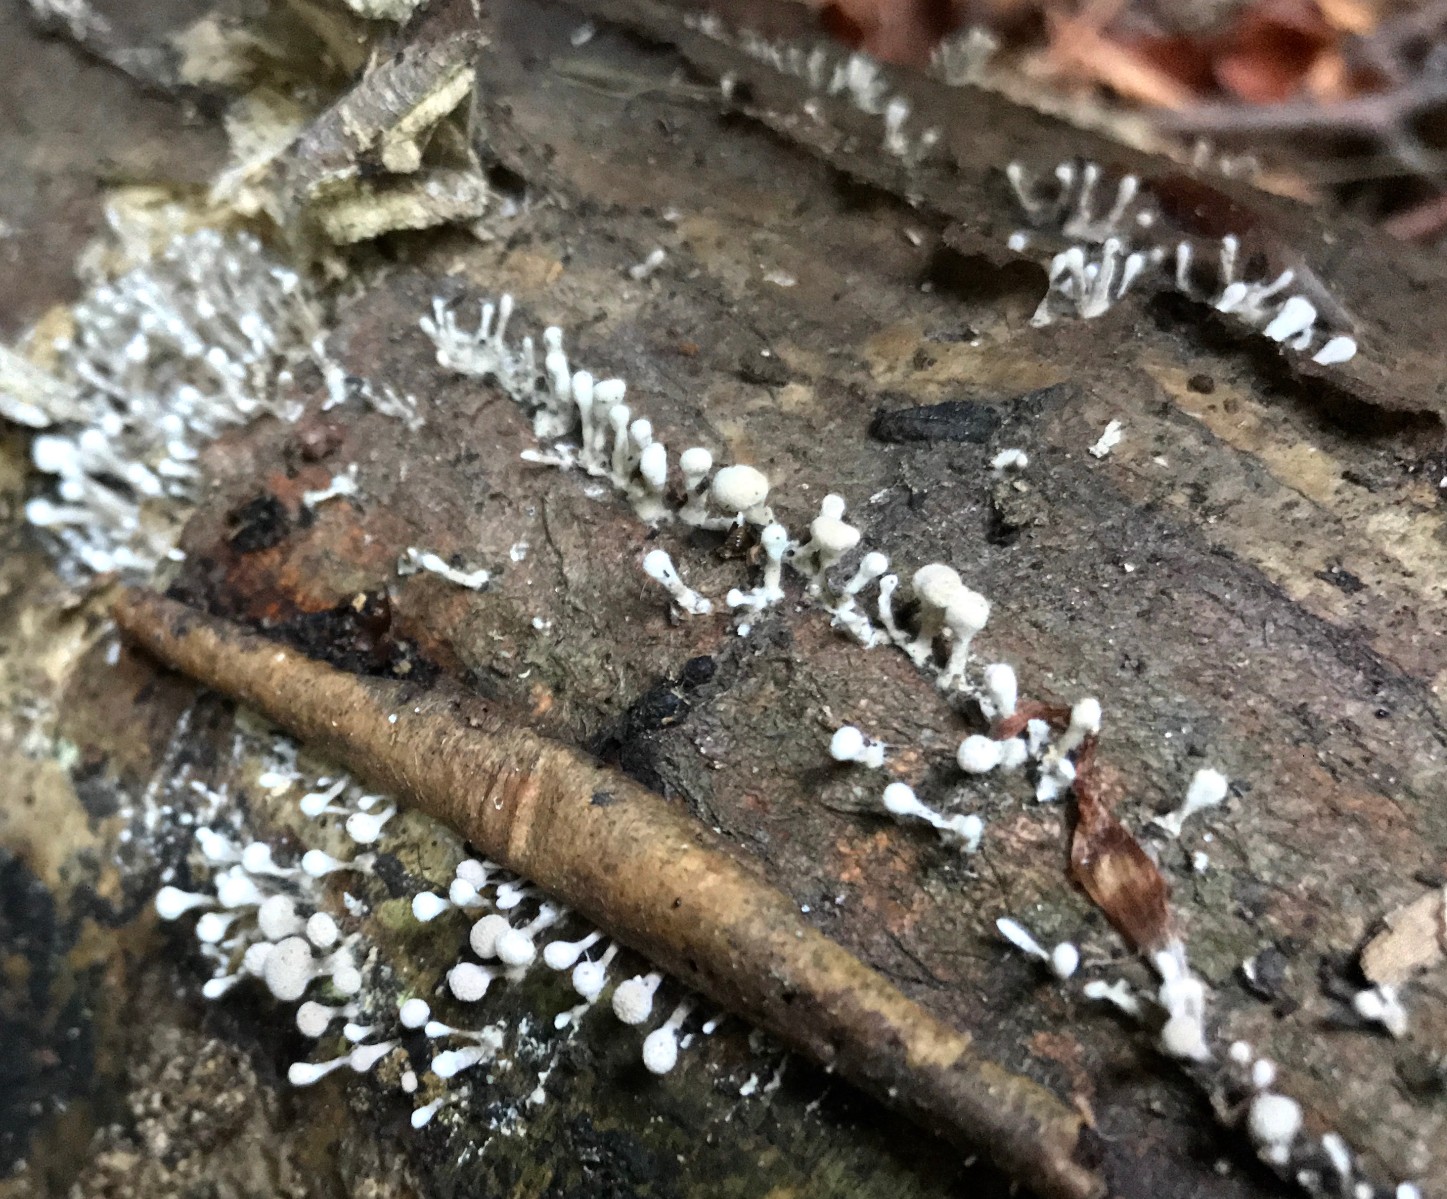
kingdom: Fungi
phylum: Basidiomycota
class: Atractiellomycetes
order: Atractiellales
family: Phleogenaceae
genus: Phleogena
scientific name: Phleogena faginea
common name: pudderkølle
